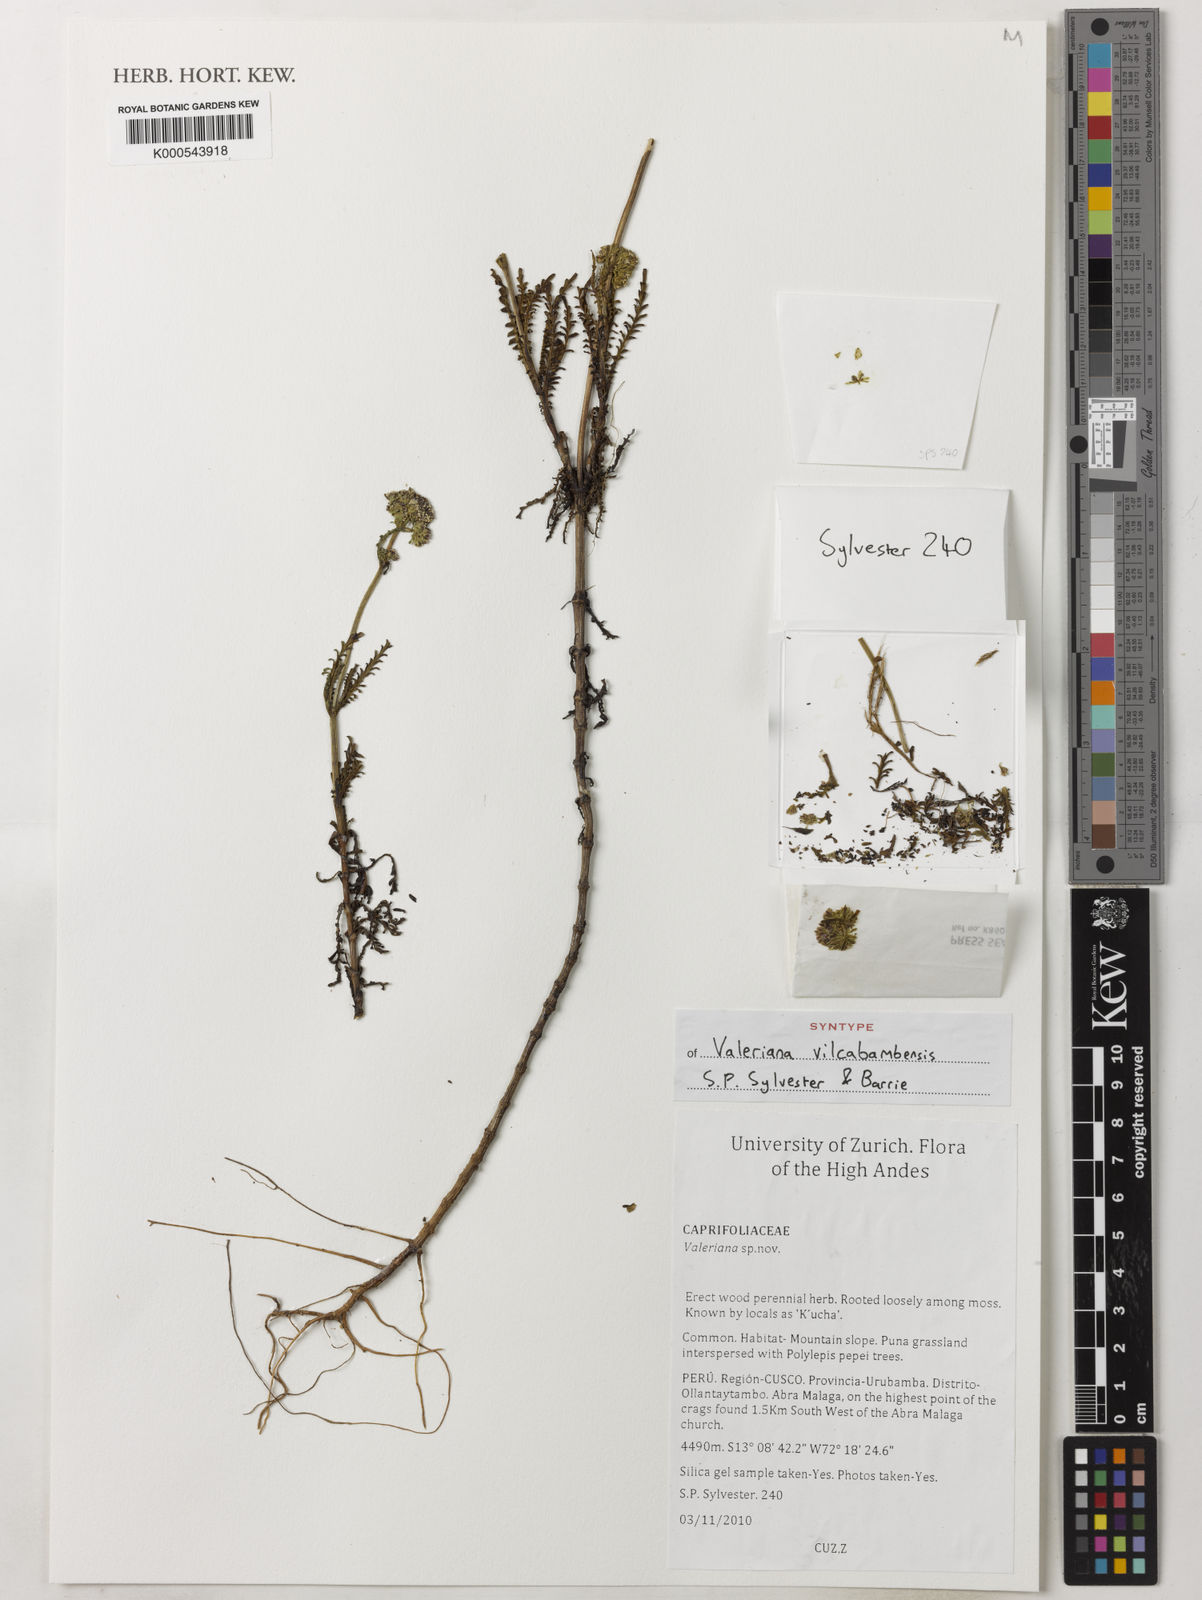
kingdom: Plantae
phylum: Tracheophyta
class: Magnoliopsida
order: Dipsacales
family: Caprifoliaceae
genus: Valeriana
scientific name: Valeriana
